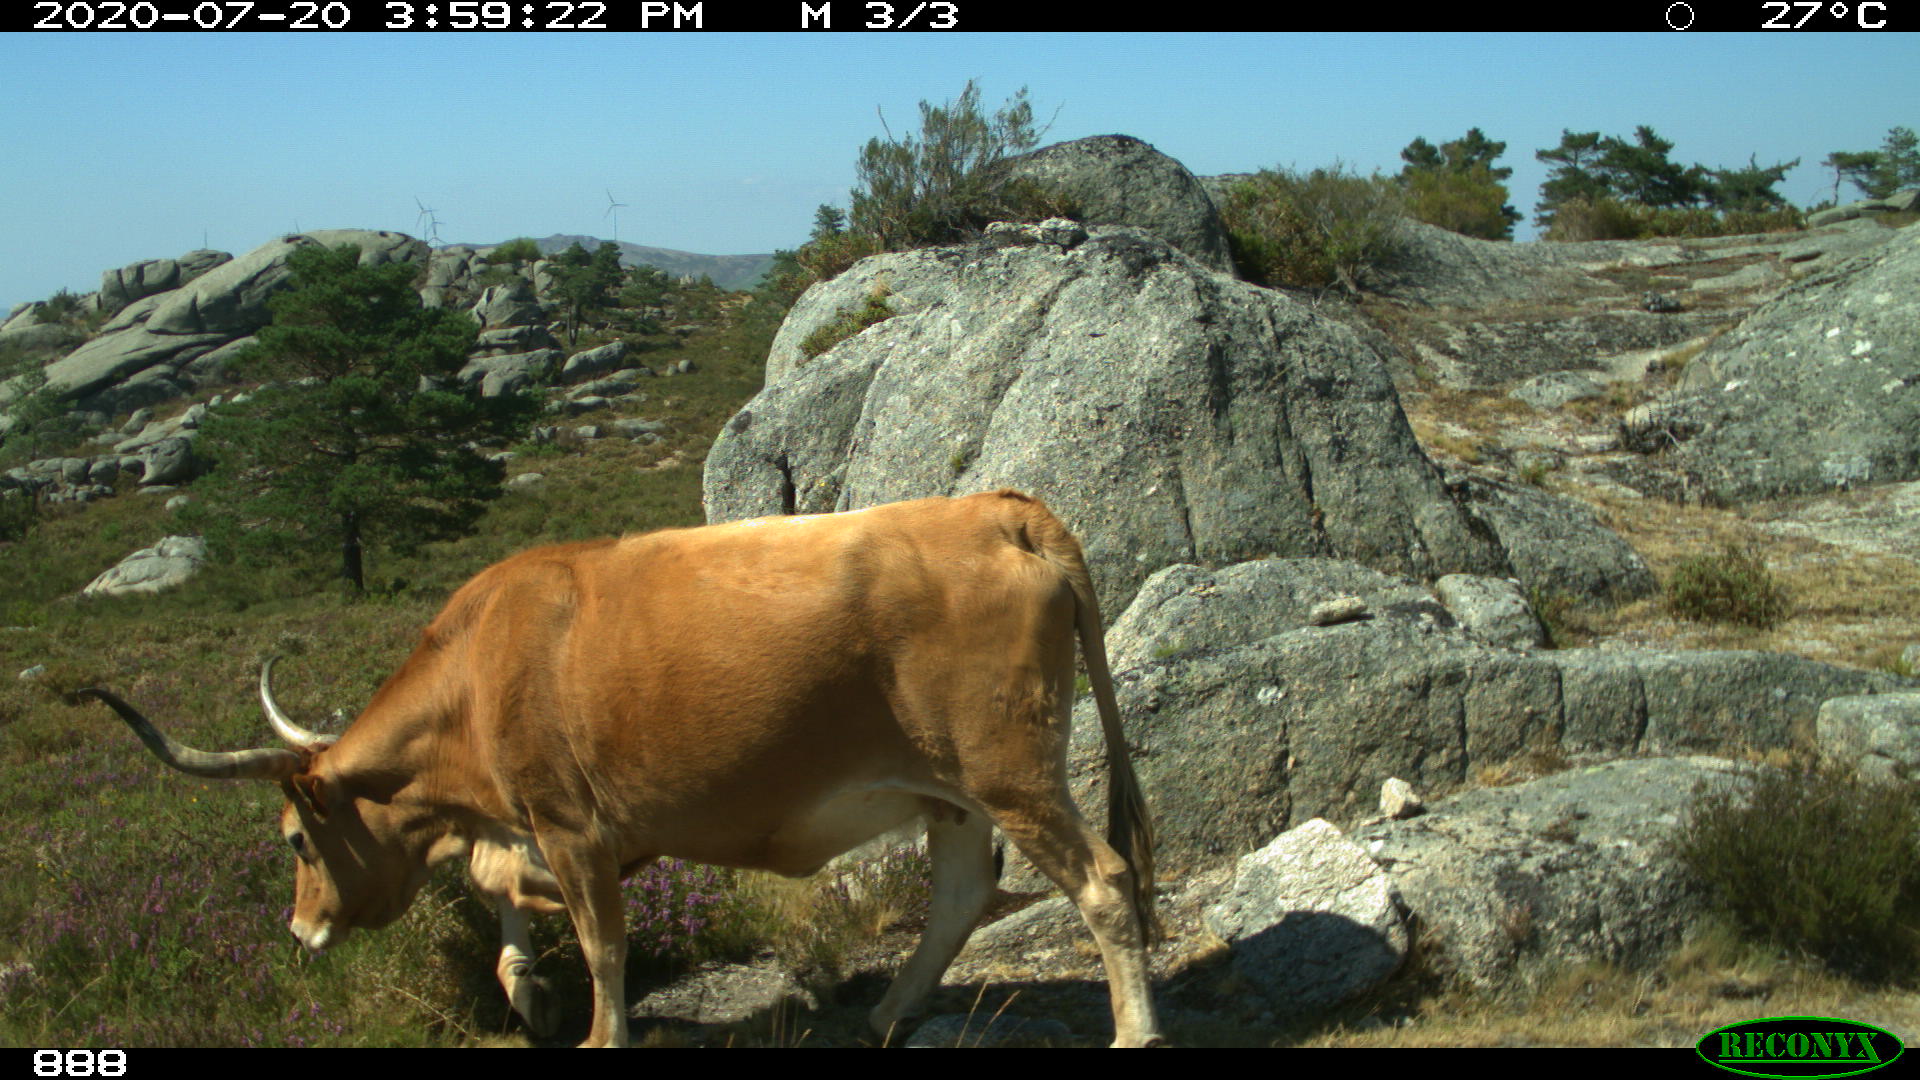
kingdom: Animalia
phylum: Chordata
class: Mammalia
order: Artiodactyla
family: Bovidae
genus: Bos
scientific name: Bos taurus
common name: Domesticated cattle
